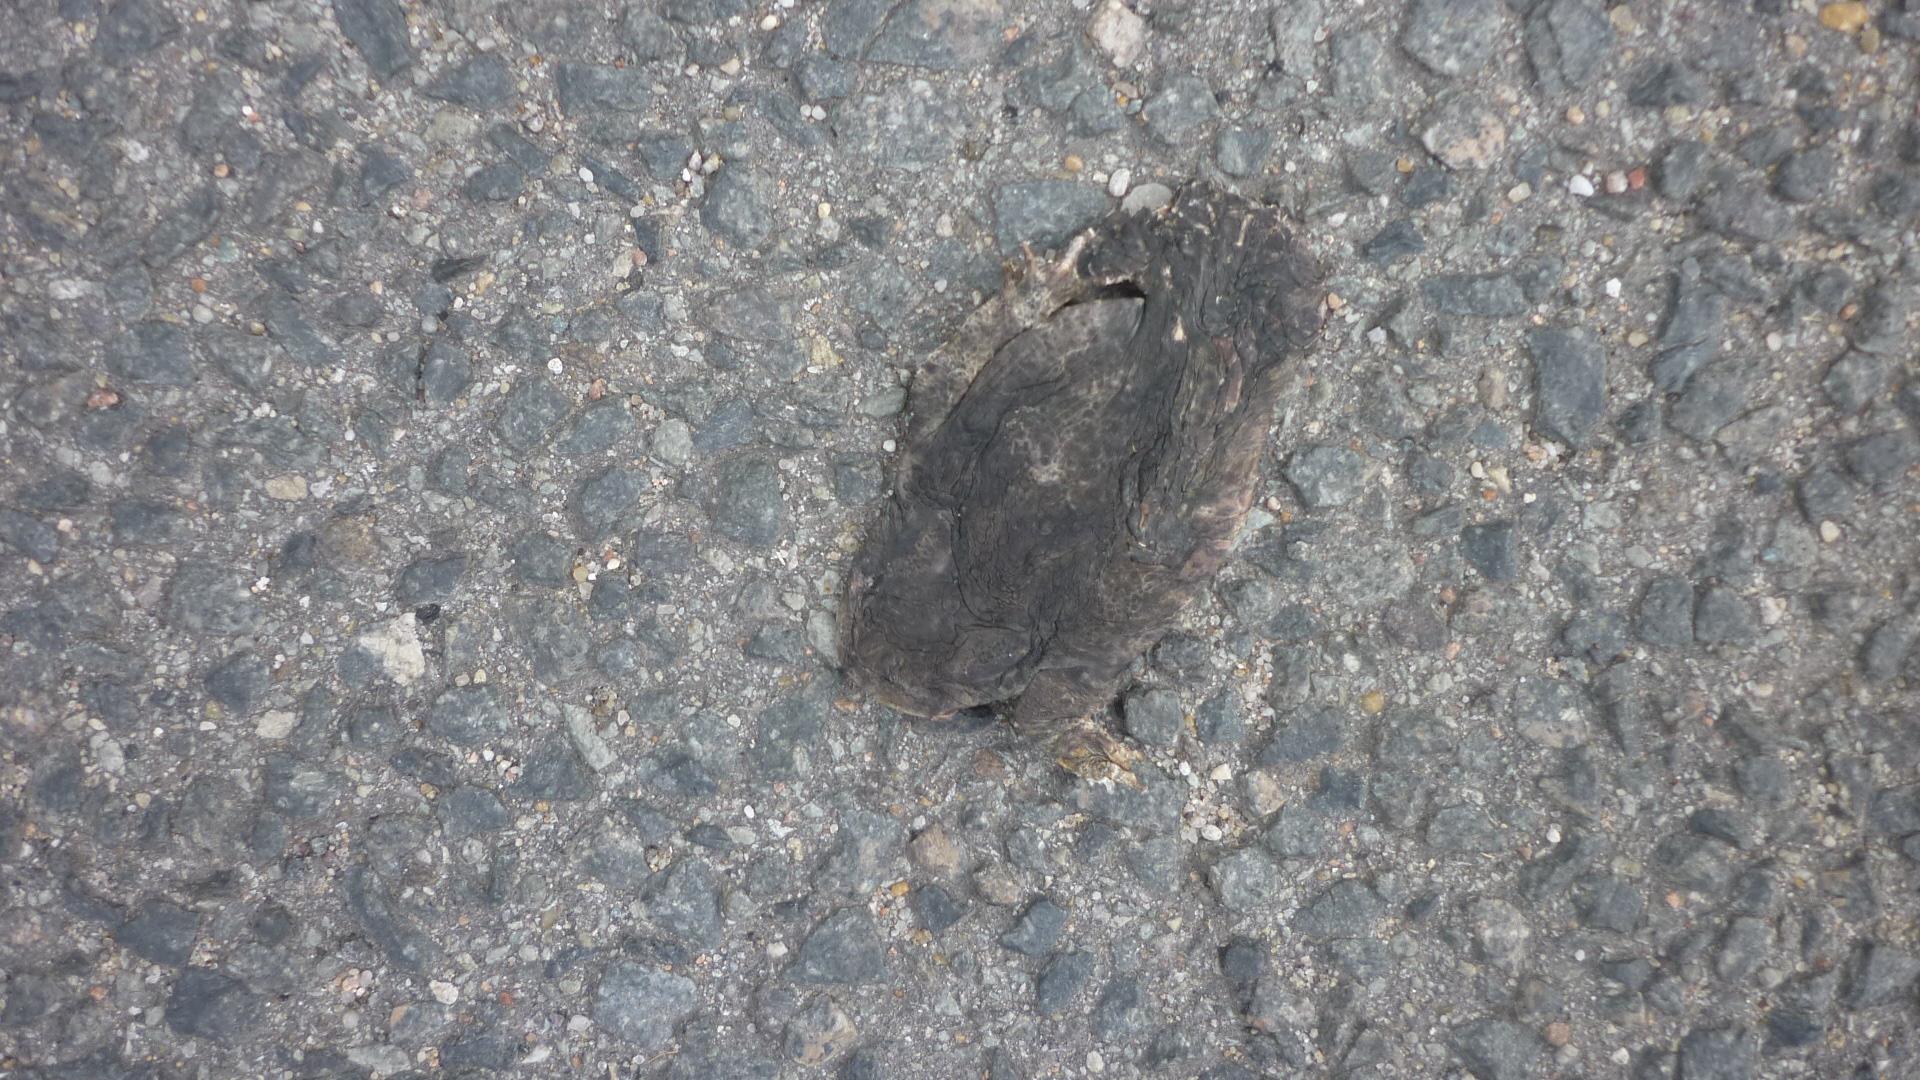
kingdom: Animalia
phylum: Chordata
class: Amphibia
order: Anura
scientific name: Anura
